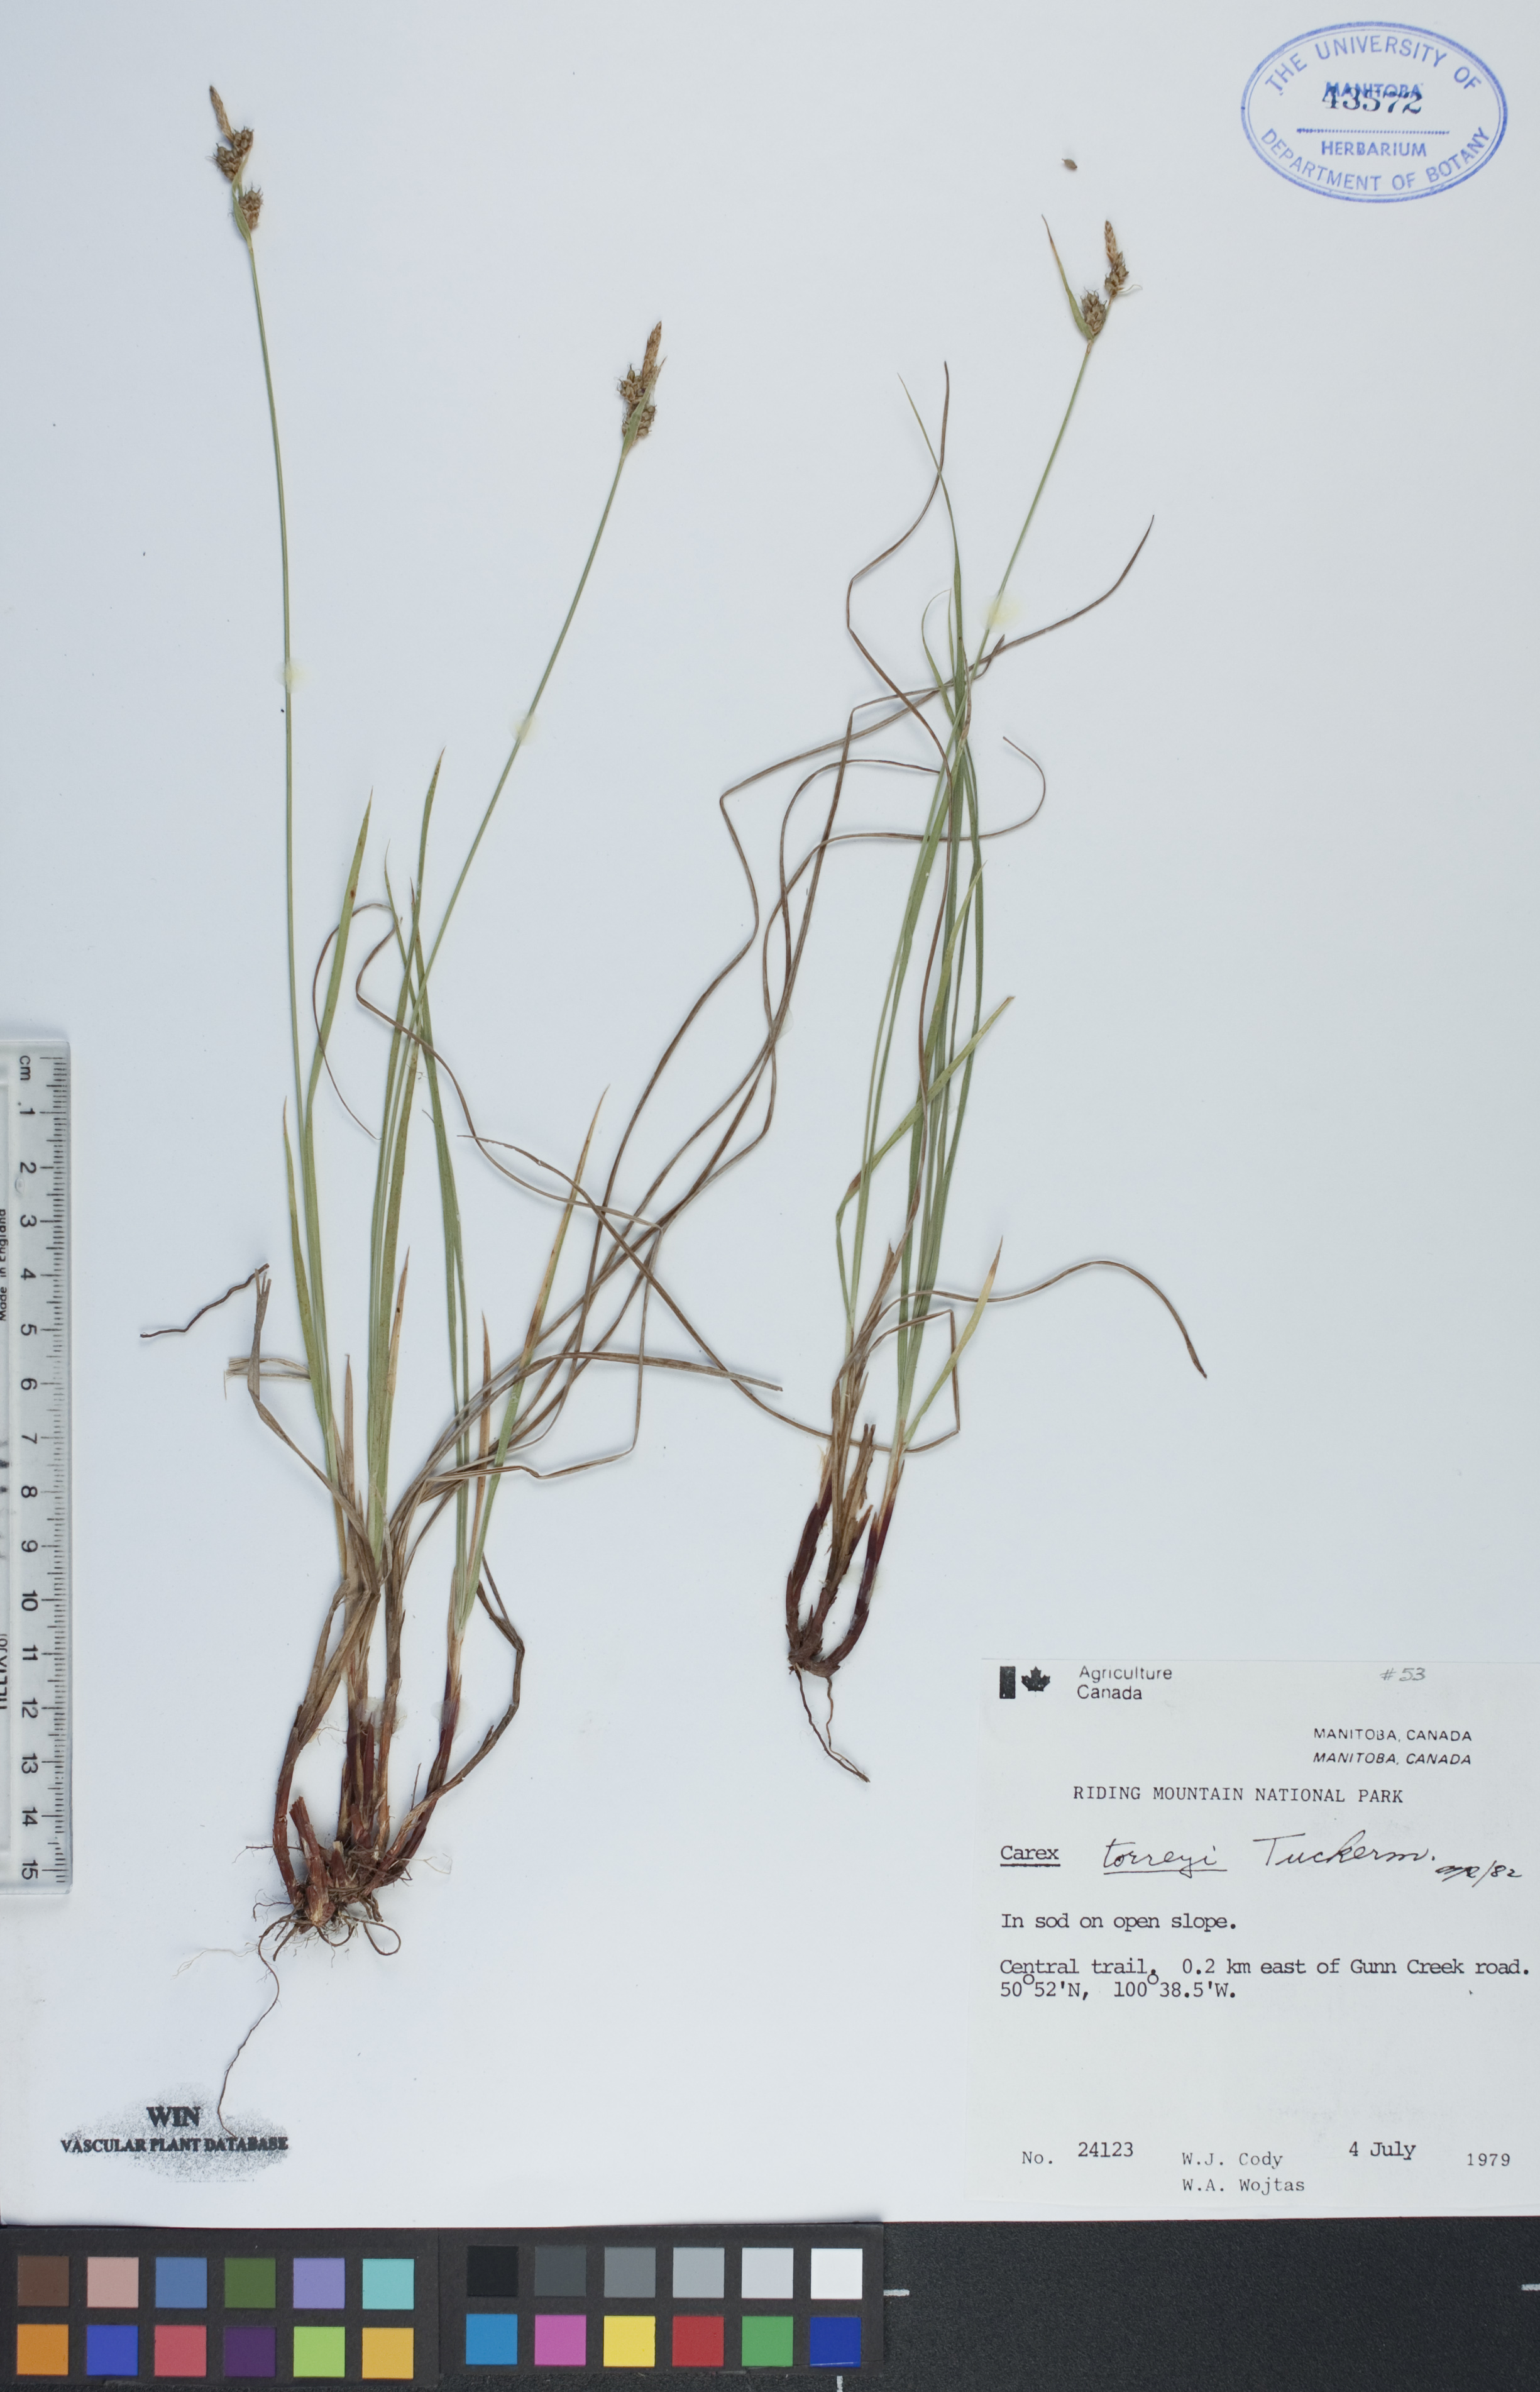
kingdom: Plantae
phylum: Tracheophyta
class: Liliopsida
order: Poales
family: Cyperaceae
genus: Carex
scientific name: Carex torreyi
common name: Torrey's sedge
